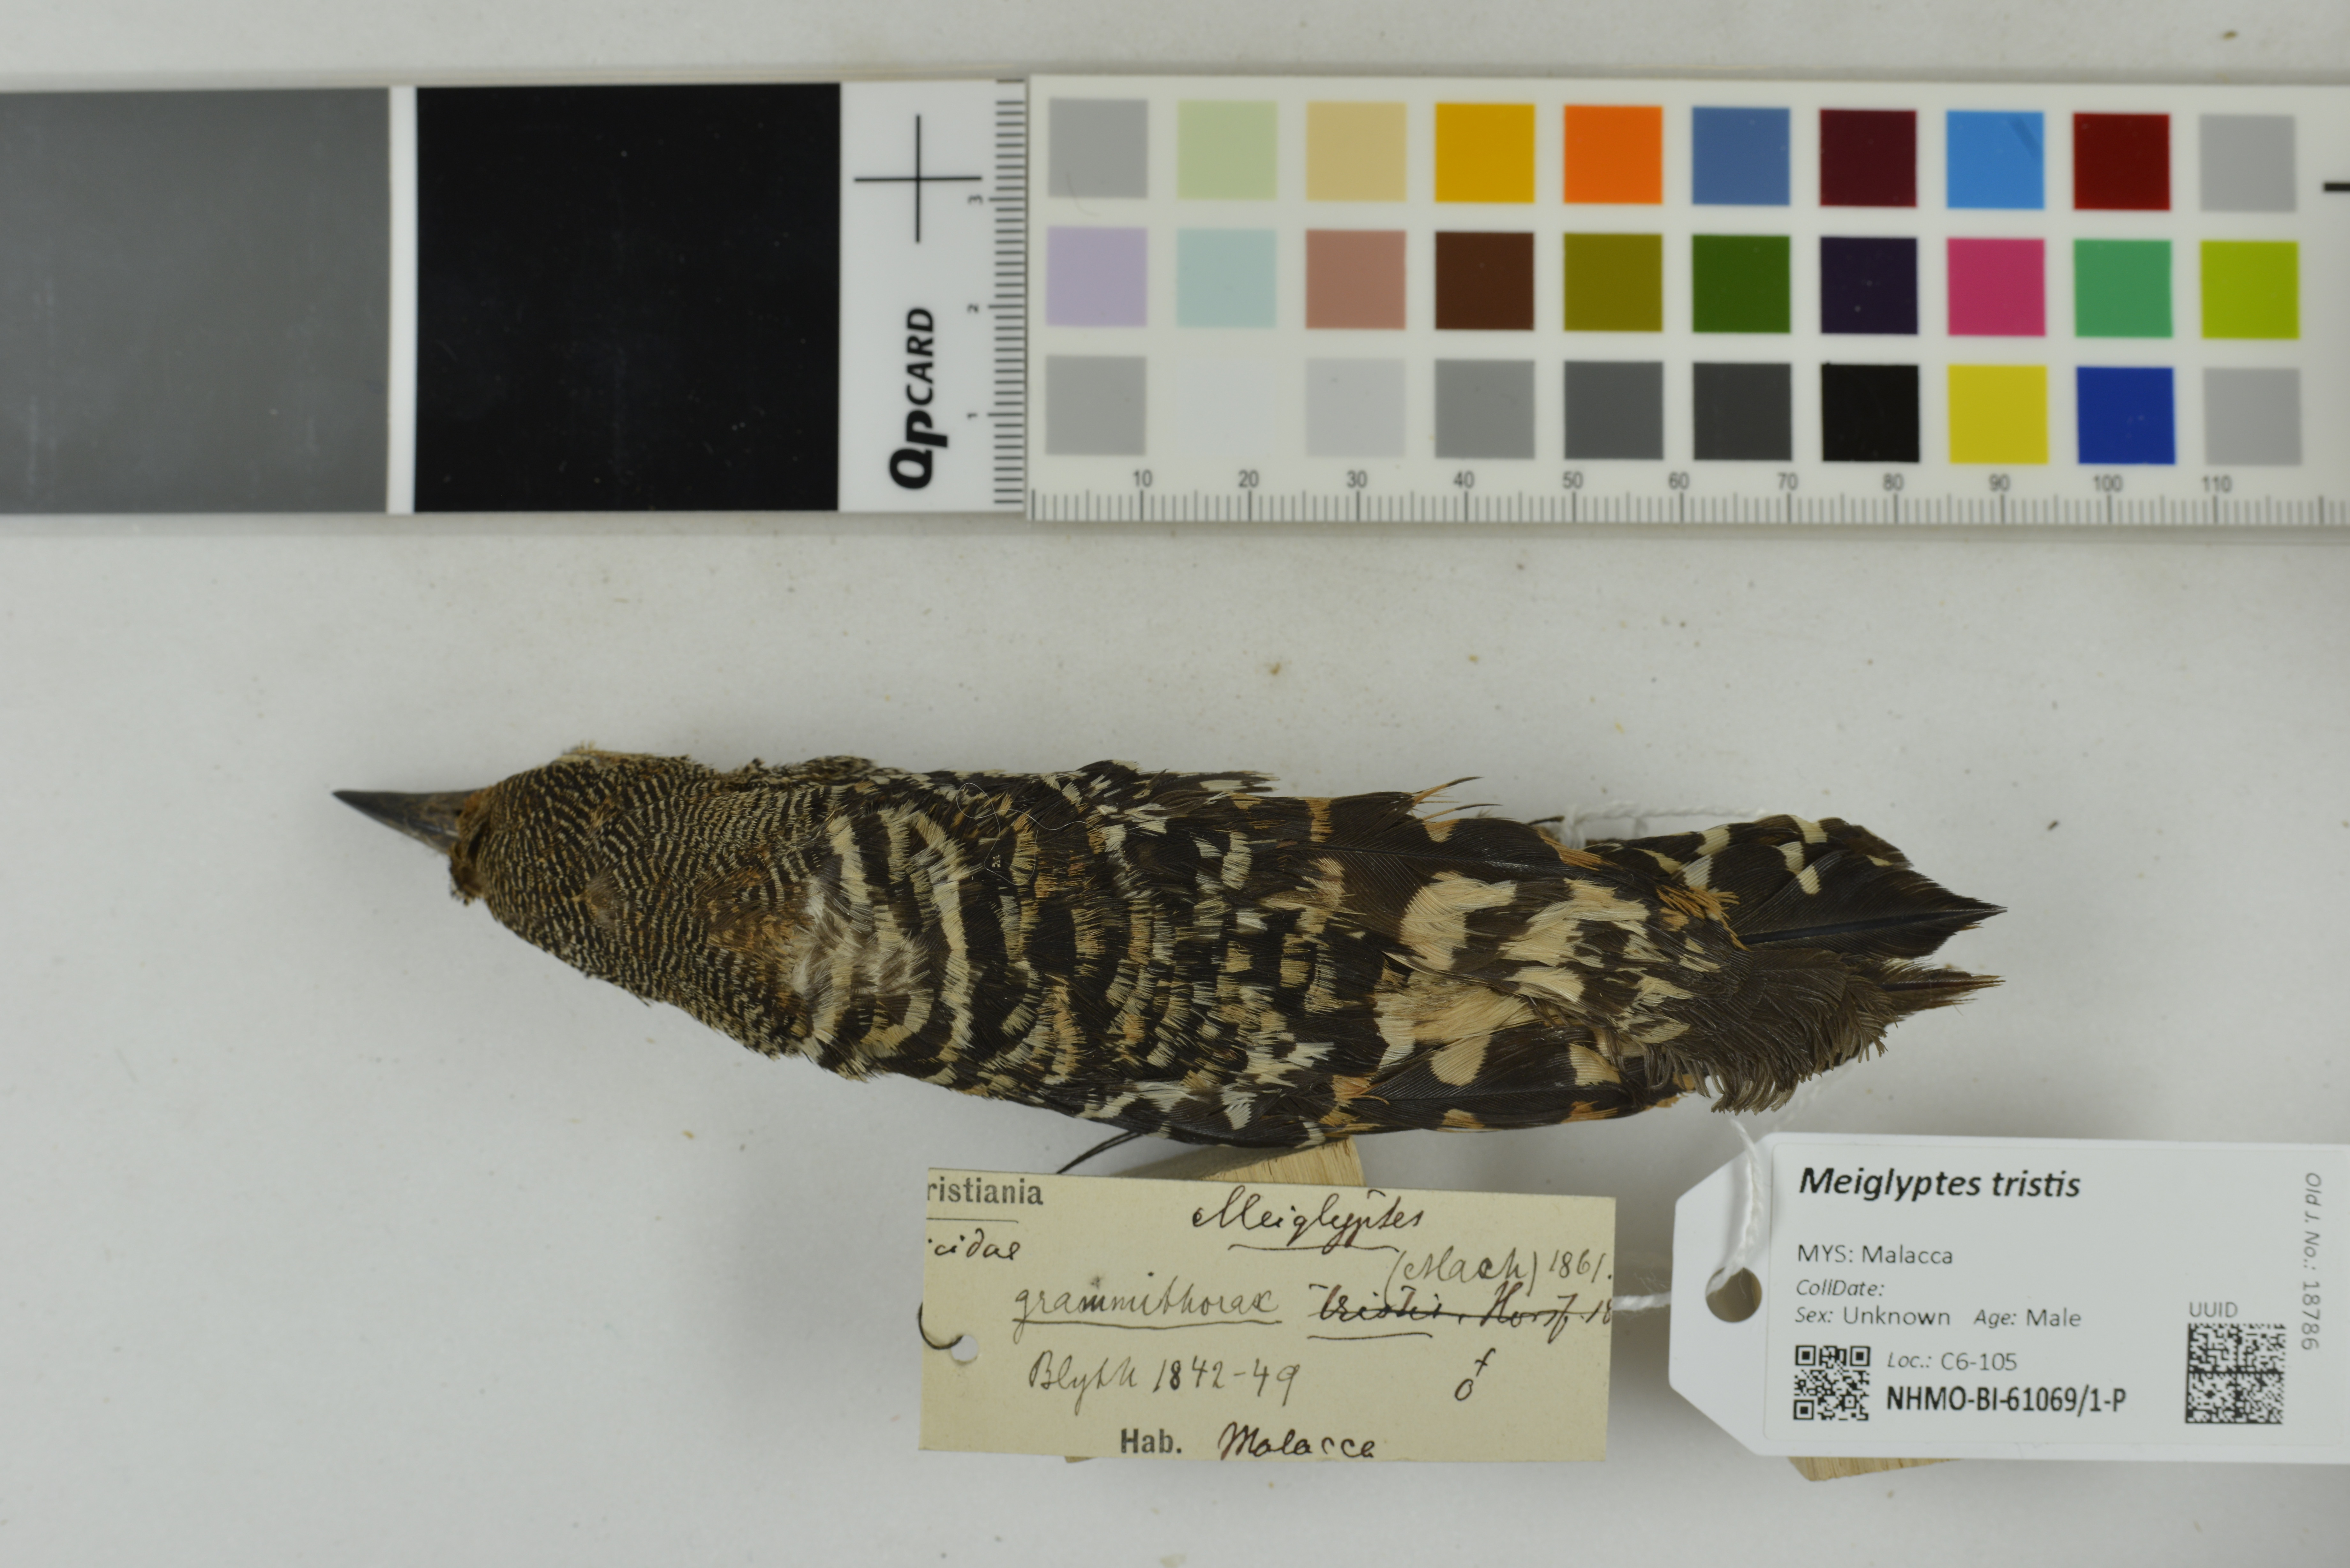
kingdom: Animalia
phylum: Chordata
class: Aves
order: Piciformes
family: Picidae
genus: Meiglyptes
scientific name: Meiglyptes tristis
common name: Buff-rumped woodpecker
